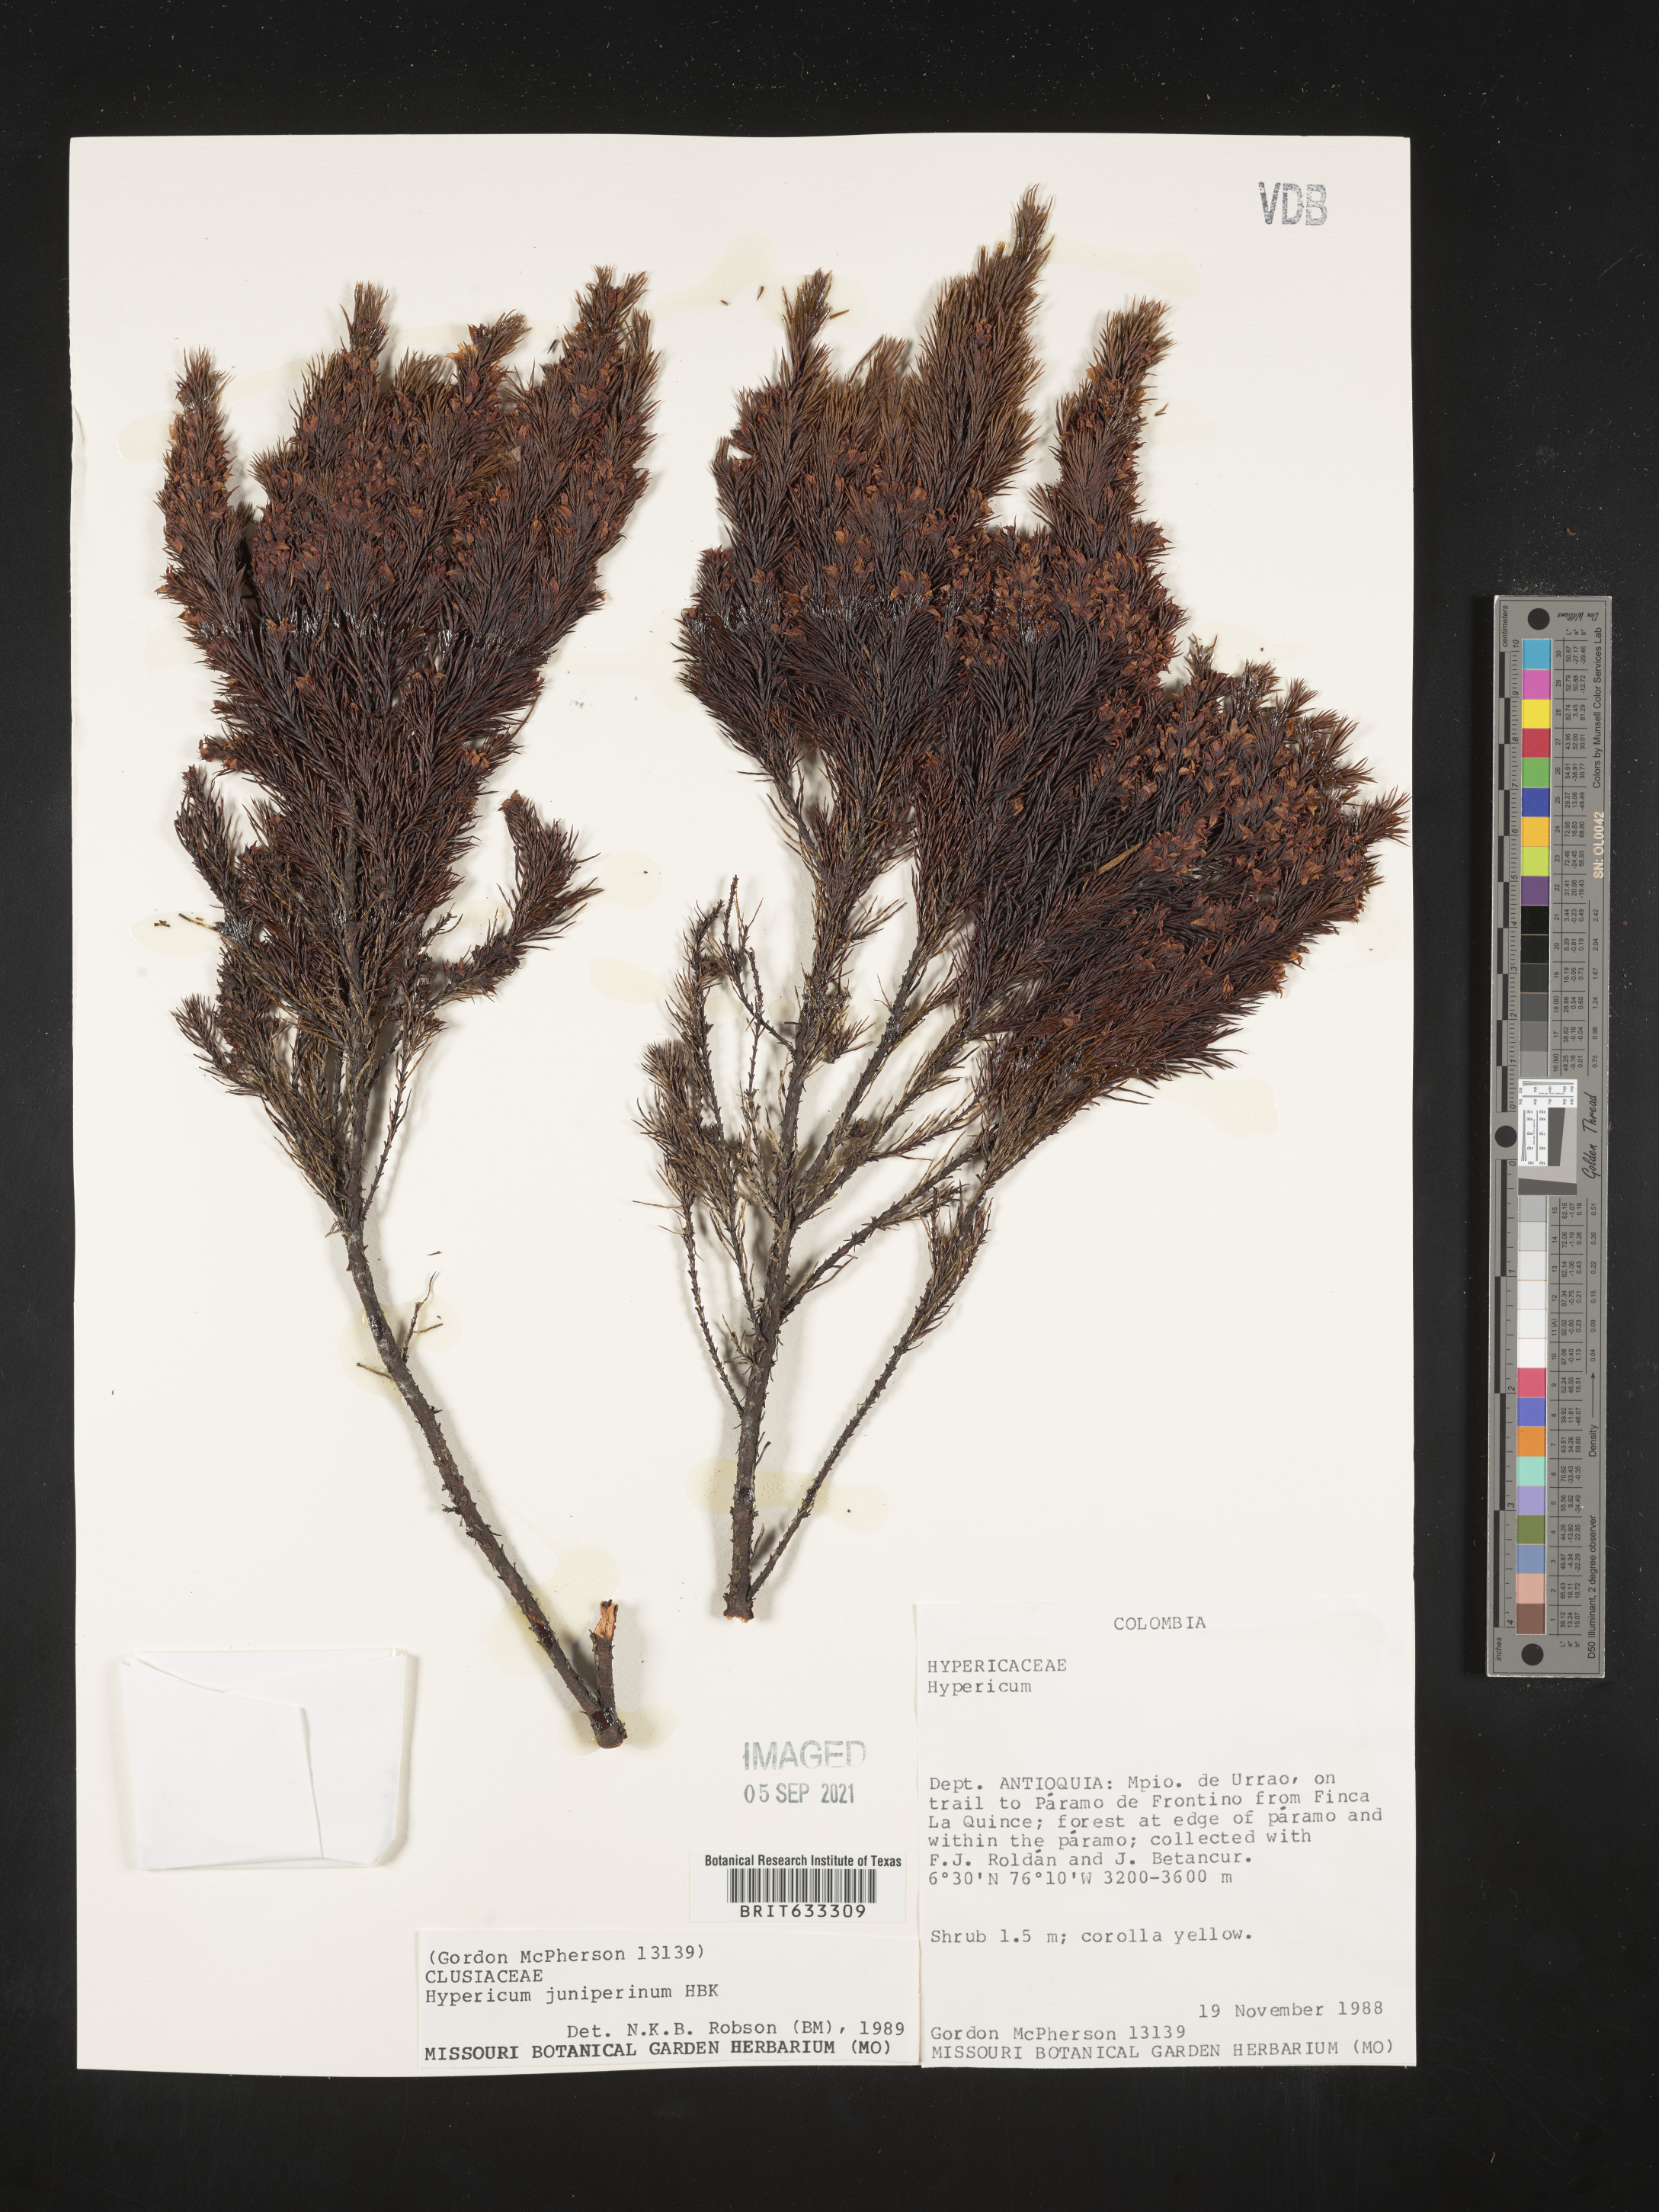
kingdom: Plantae
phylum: Tracheophyta
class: Magnoliopsida
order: Malpighiales
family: Hypericaceae
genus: Hypericum
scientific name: Hypericum
